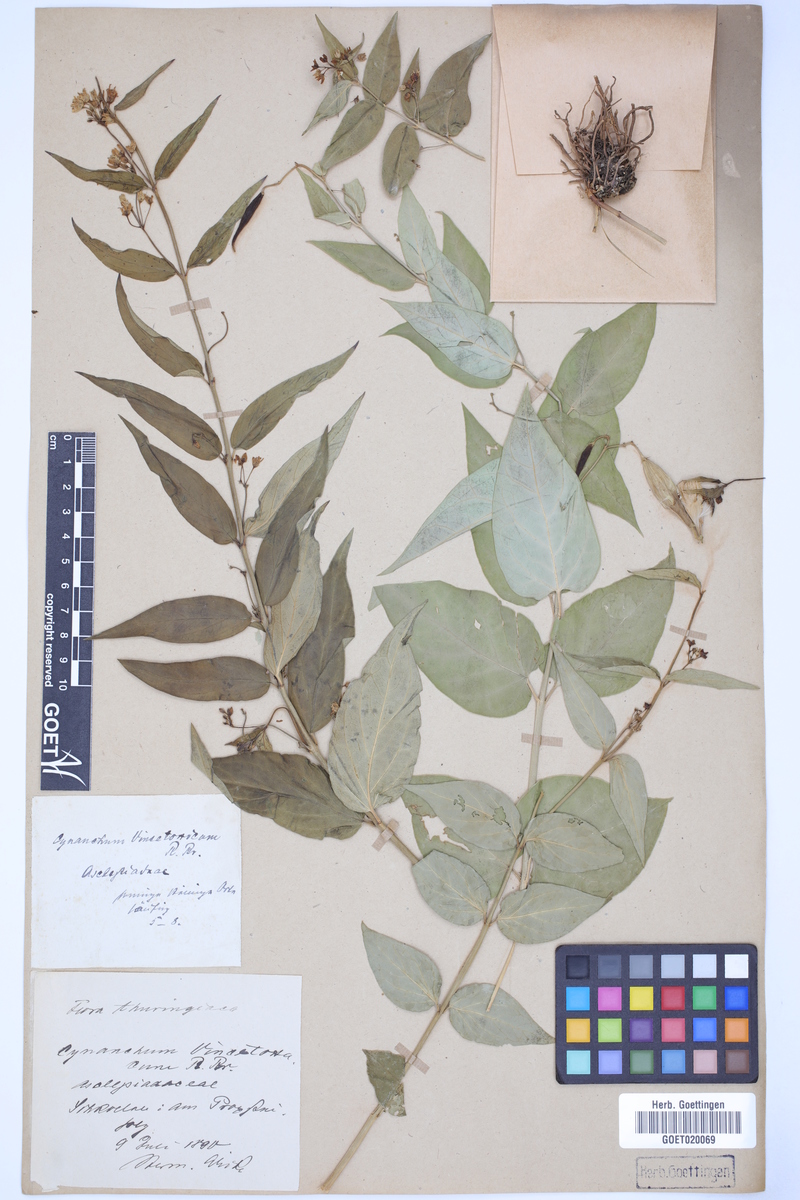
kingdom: Plantae
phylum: Tracheophyta
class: Magnoliopsida
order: Gentianales
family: Apocynaceae
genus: Vincetoxicum
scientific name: Vincetoxicum hirundinaria
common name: White swallowwort
